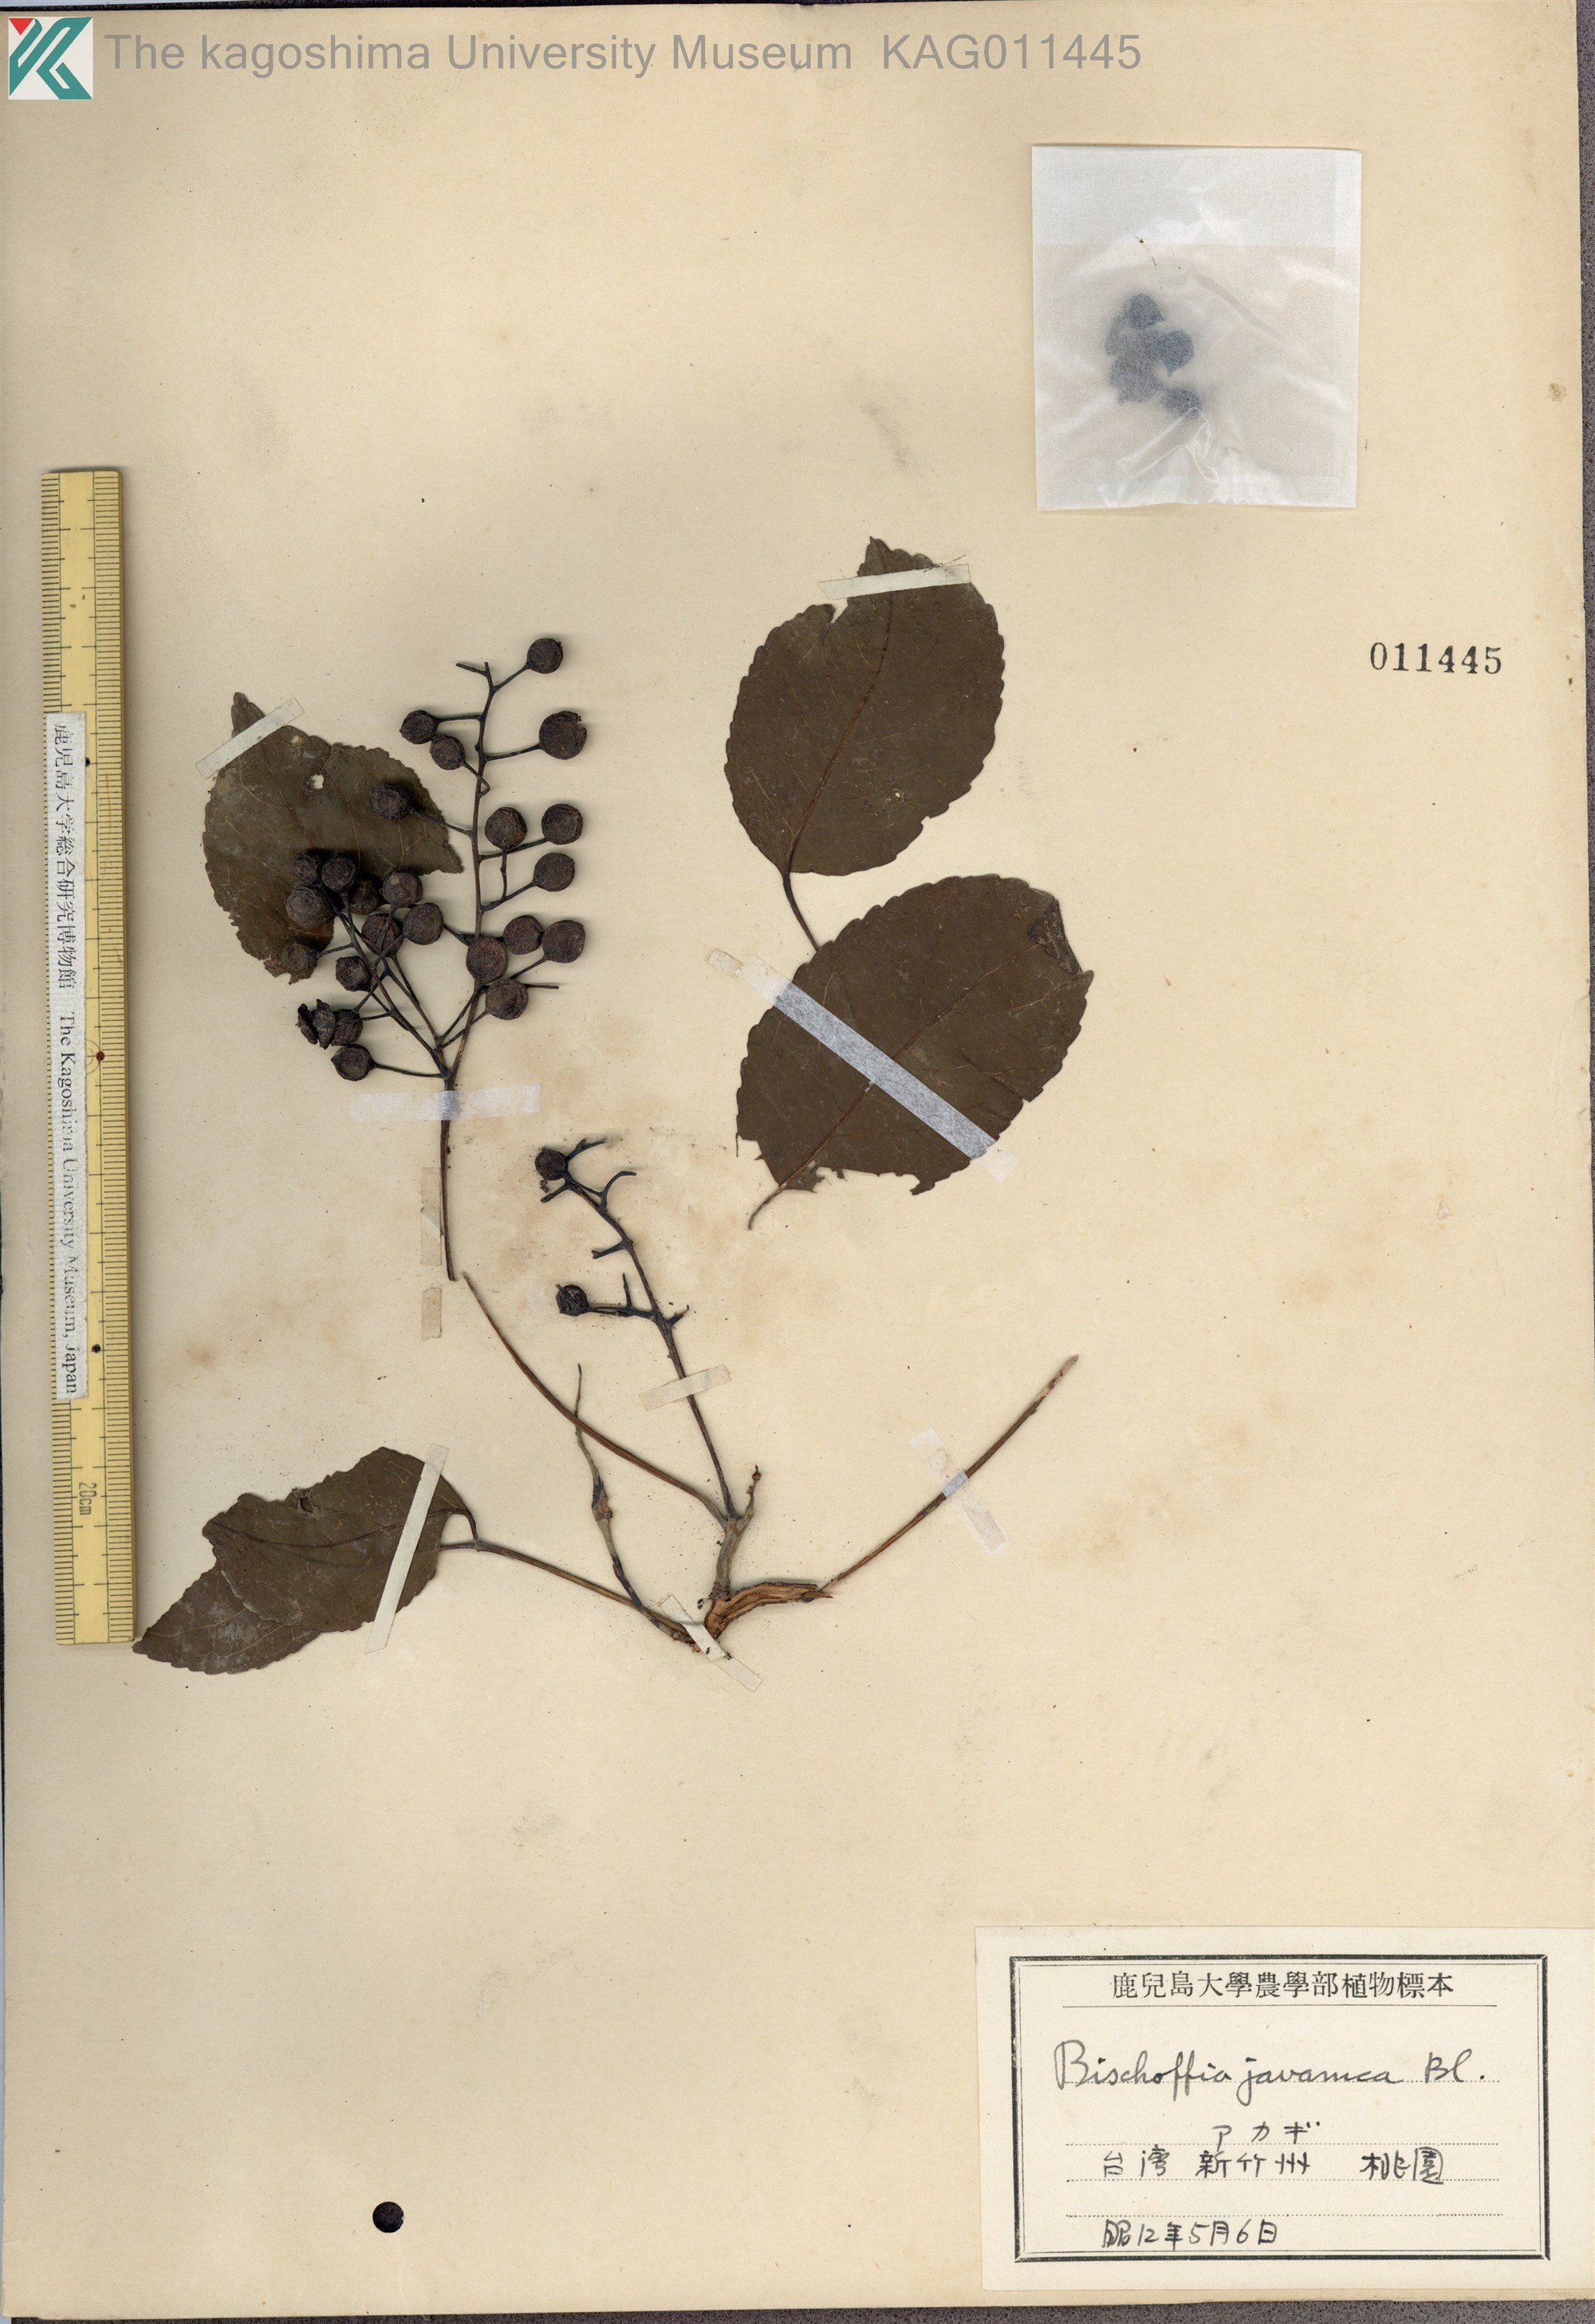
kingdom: Plantae
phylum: Tracheophyta
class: Magnoliopsida
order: Malpighiales
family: Phyllanthaceae
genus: Bischofia
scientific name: Bischofia javanica
